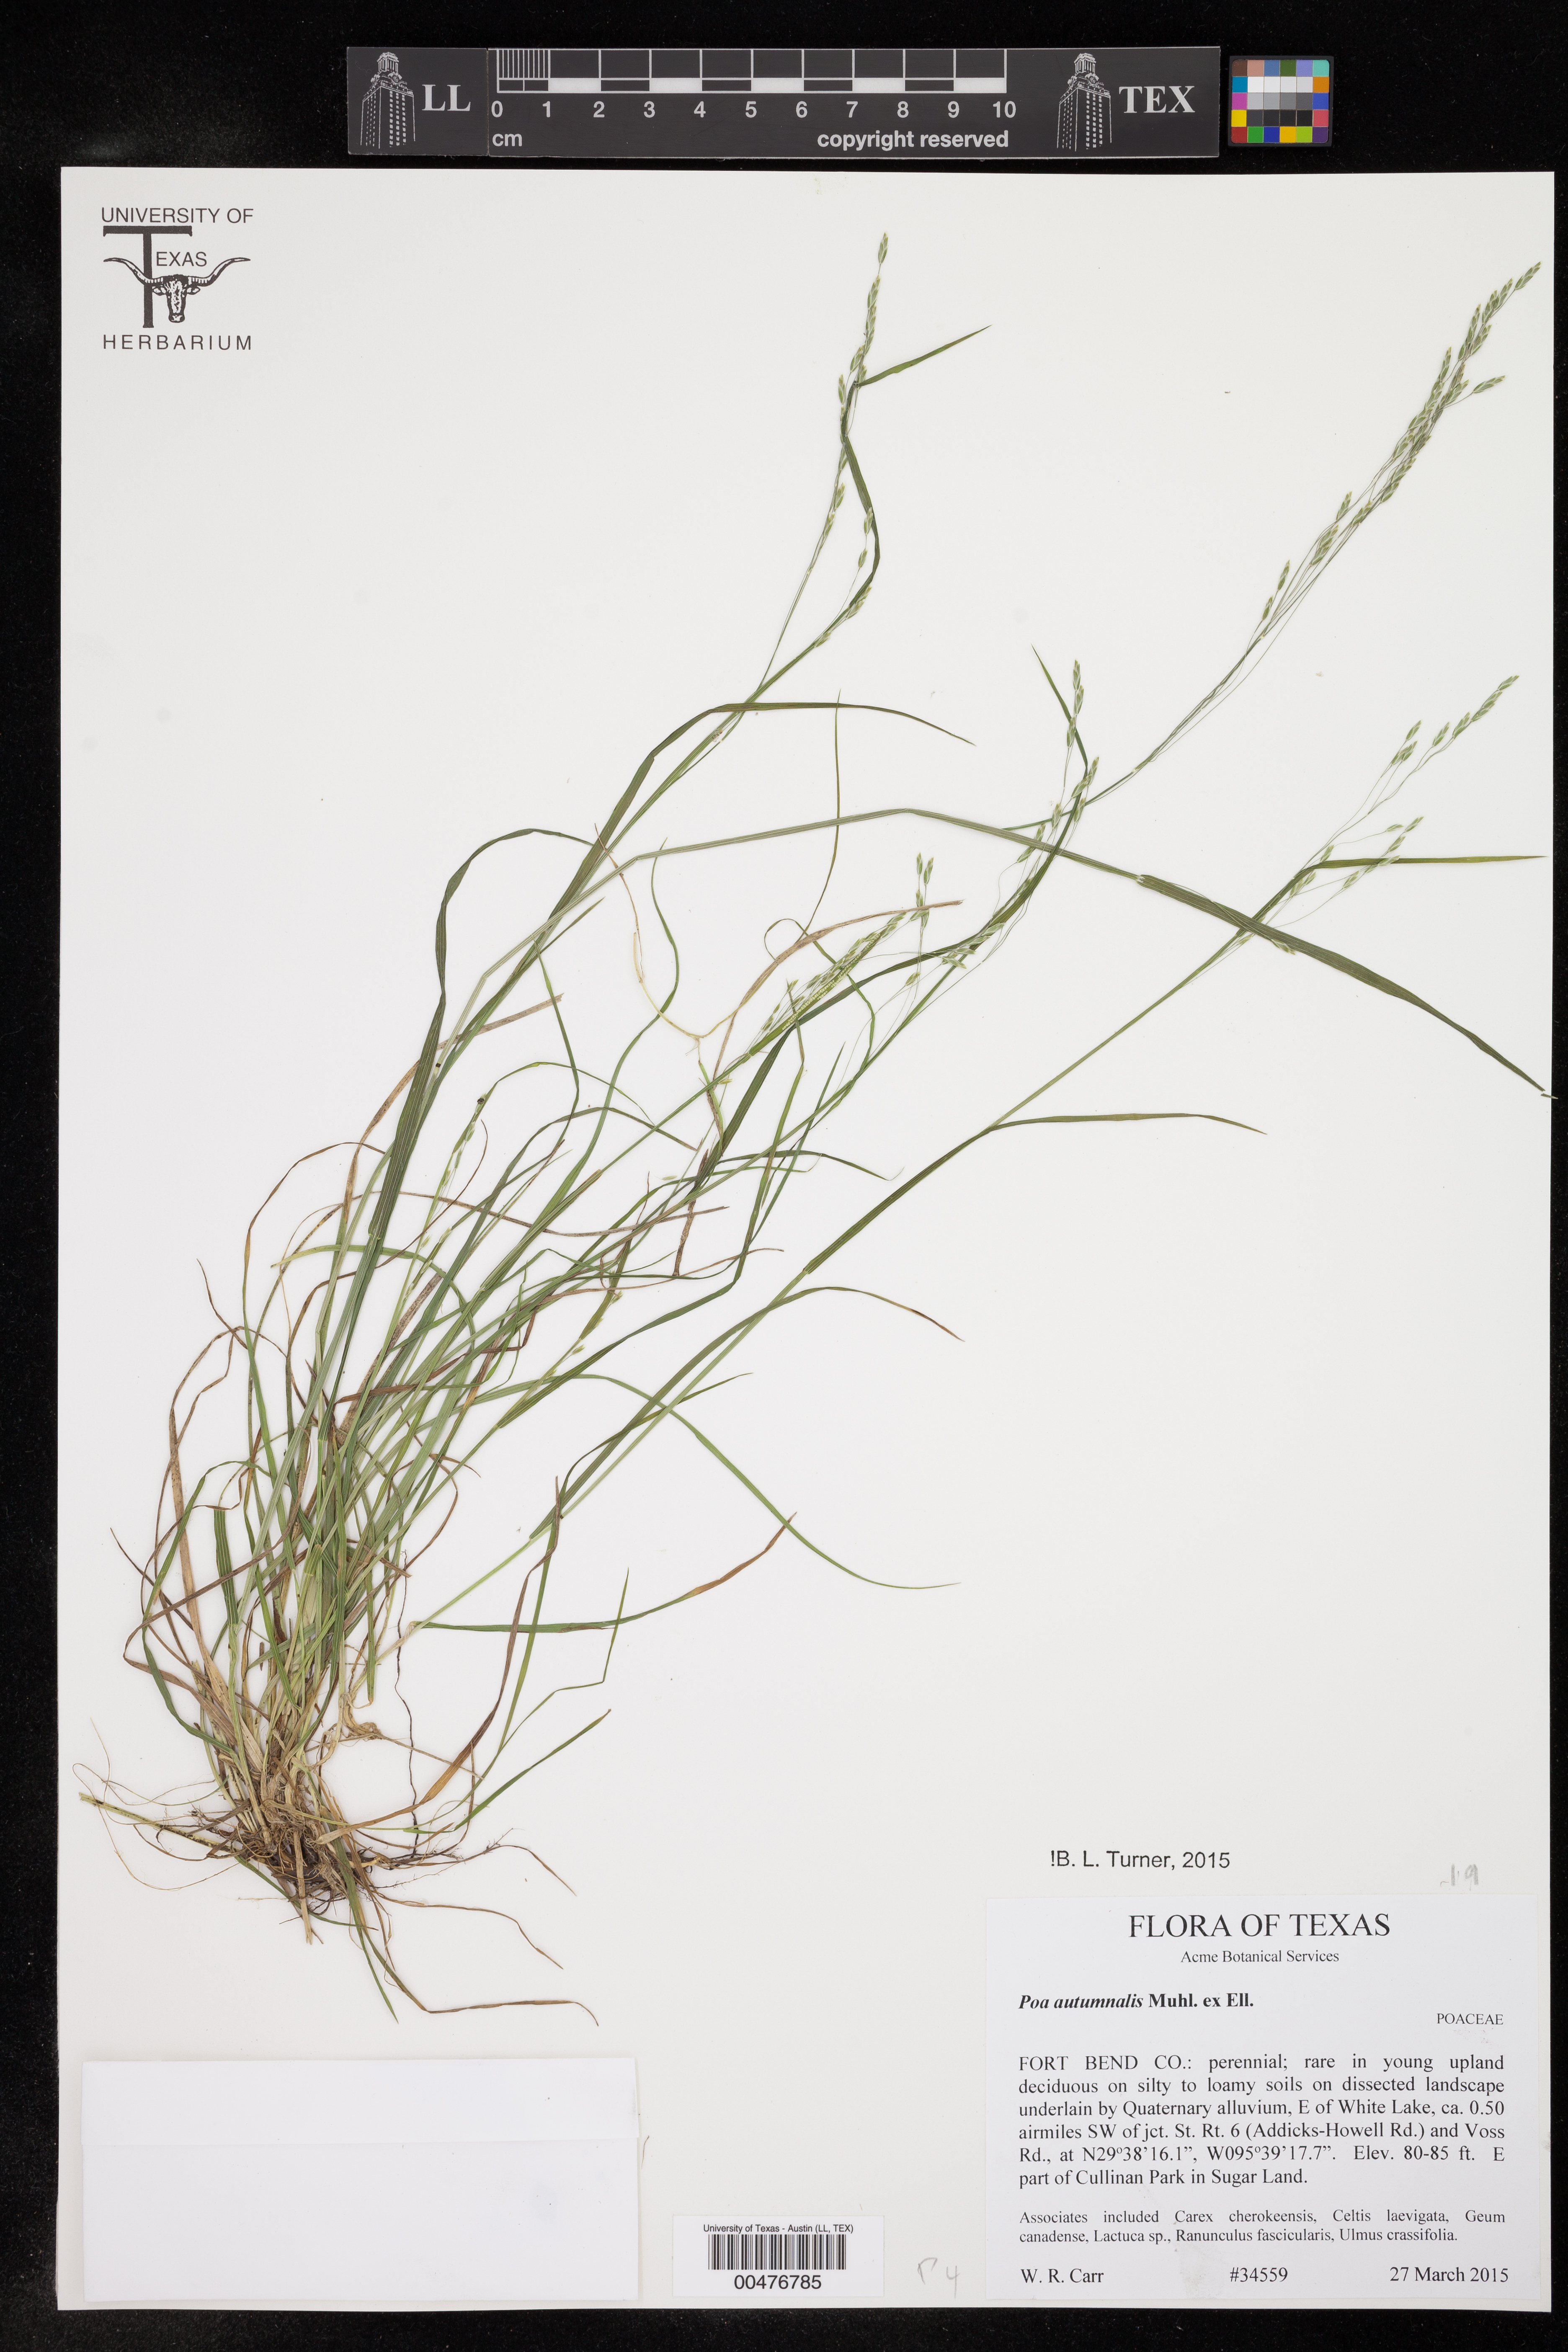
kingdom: Plantae
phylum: Tracheophyta
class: Liliopsida
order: Poales
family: Poaceae
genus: Poa
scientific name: Poa autumnalis
